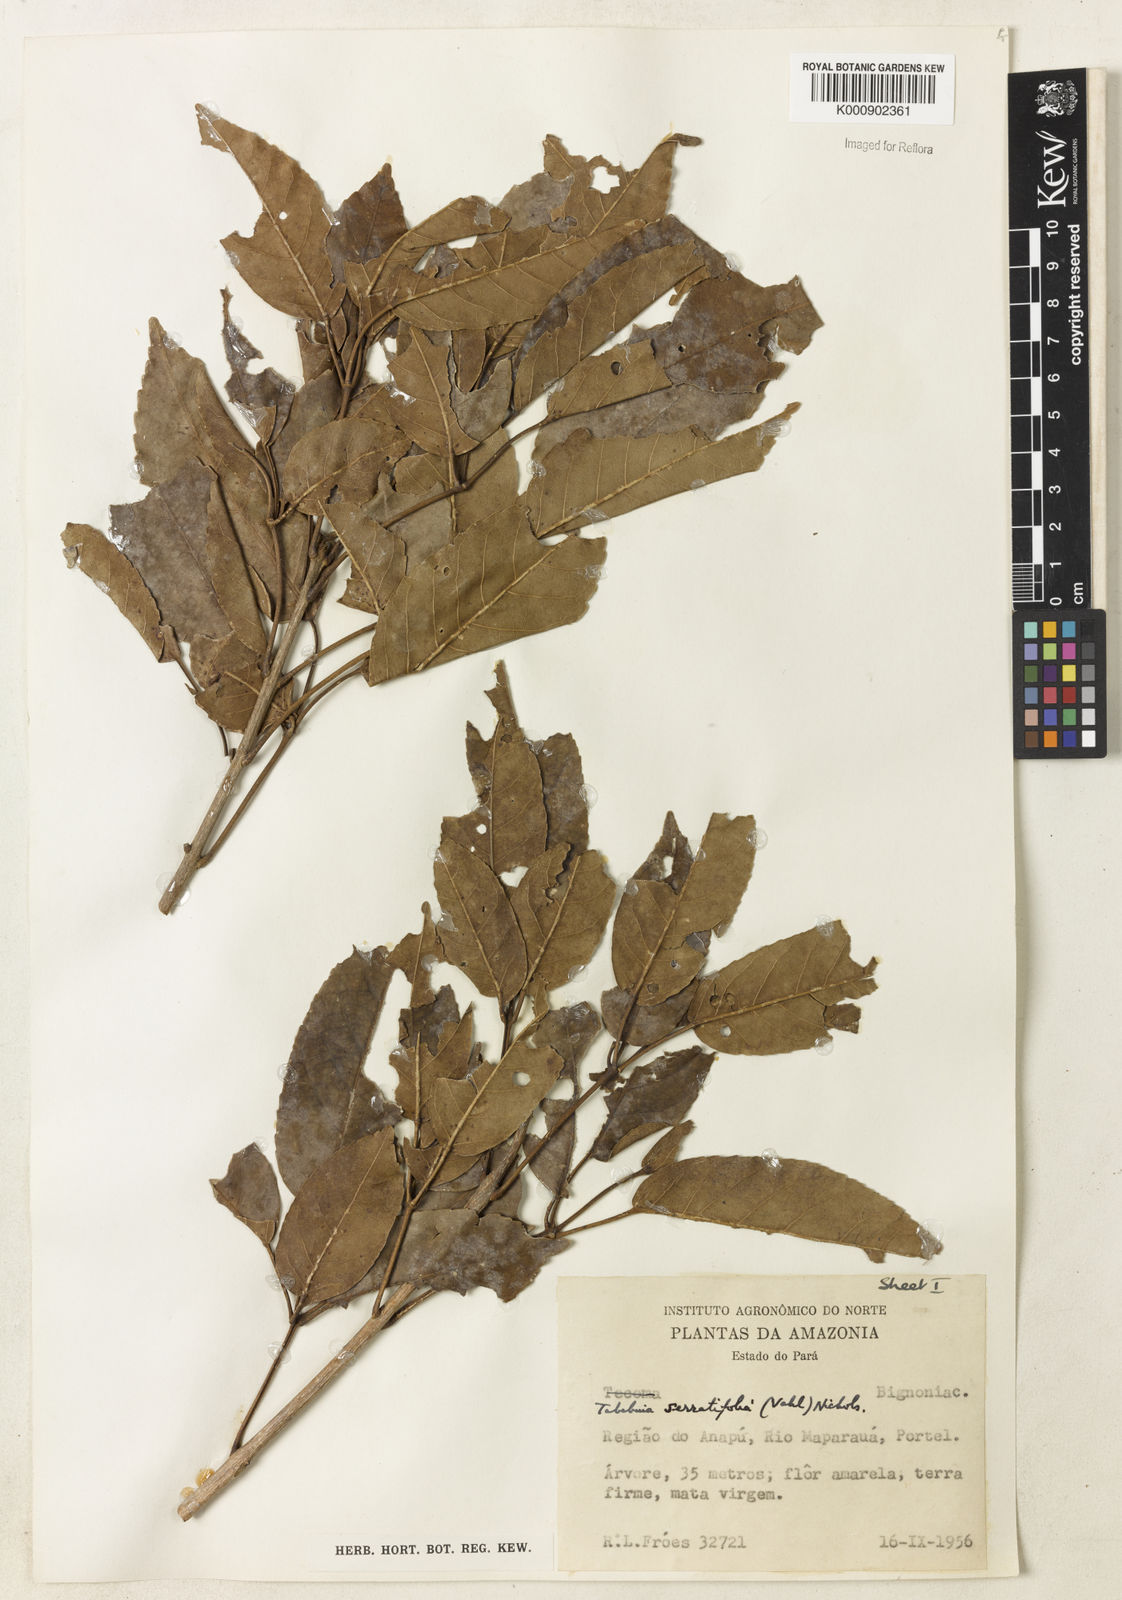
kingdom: Plantae
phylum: Tracheophyta
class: Magnoliopsida
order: Lamiales
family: Bignoniaceae
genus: Handroanthus
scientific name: Handroanthus serratifolius
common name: Yellow ipe
